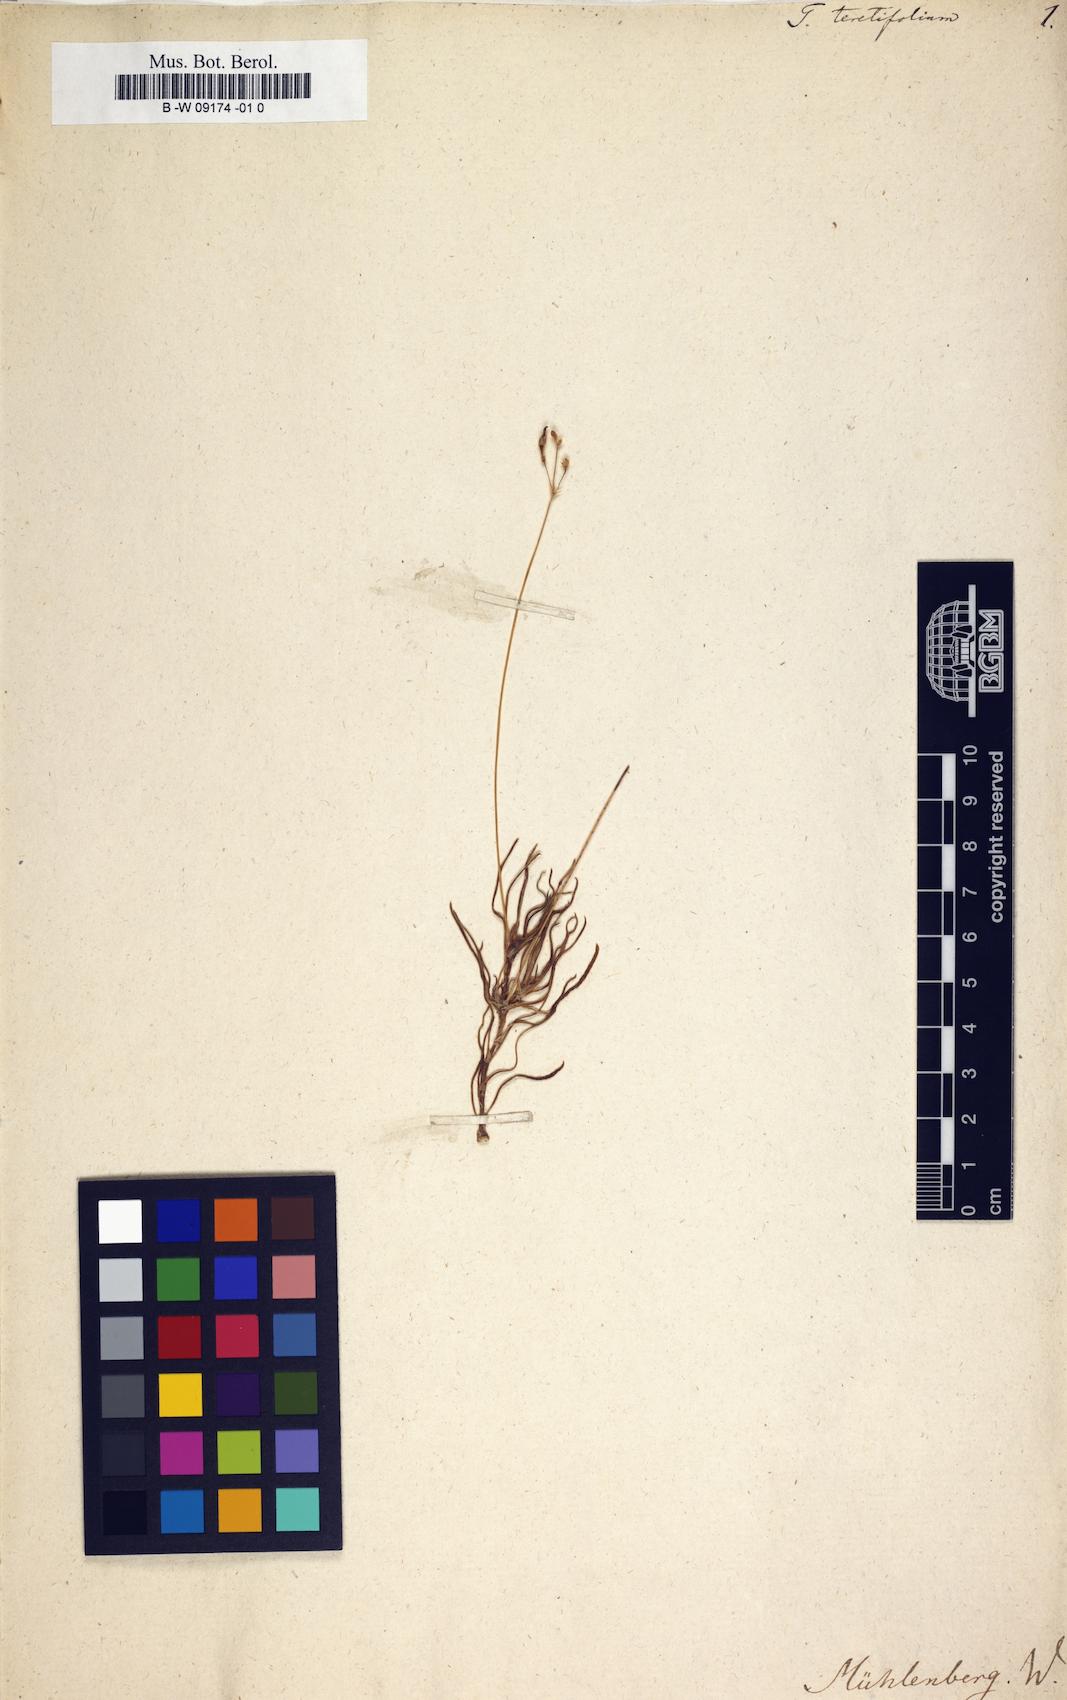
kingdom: Plantae
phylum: Tracheophyta
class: Magnoliopsida
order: Caryophyllales
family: Montiaceae
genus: Phemeranthus
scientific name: Phemeranthus teretifolius
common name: Quill fameflower
